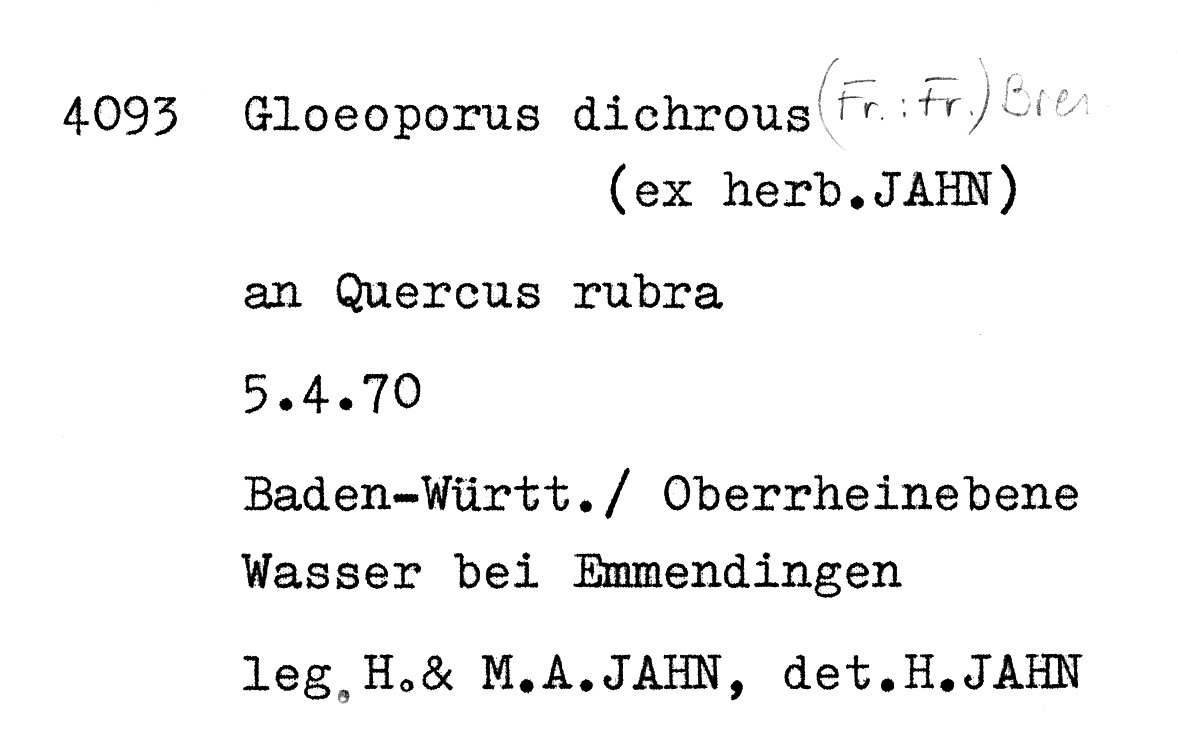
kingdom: Plantae
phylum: Tracheophyta
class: Magnoliopsida
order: Fagales
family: Fagaceae
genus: Quercus
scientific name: Quercus robur
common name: Pedunculate oak
